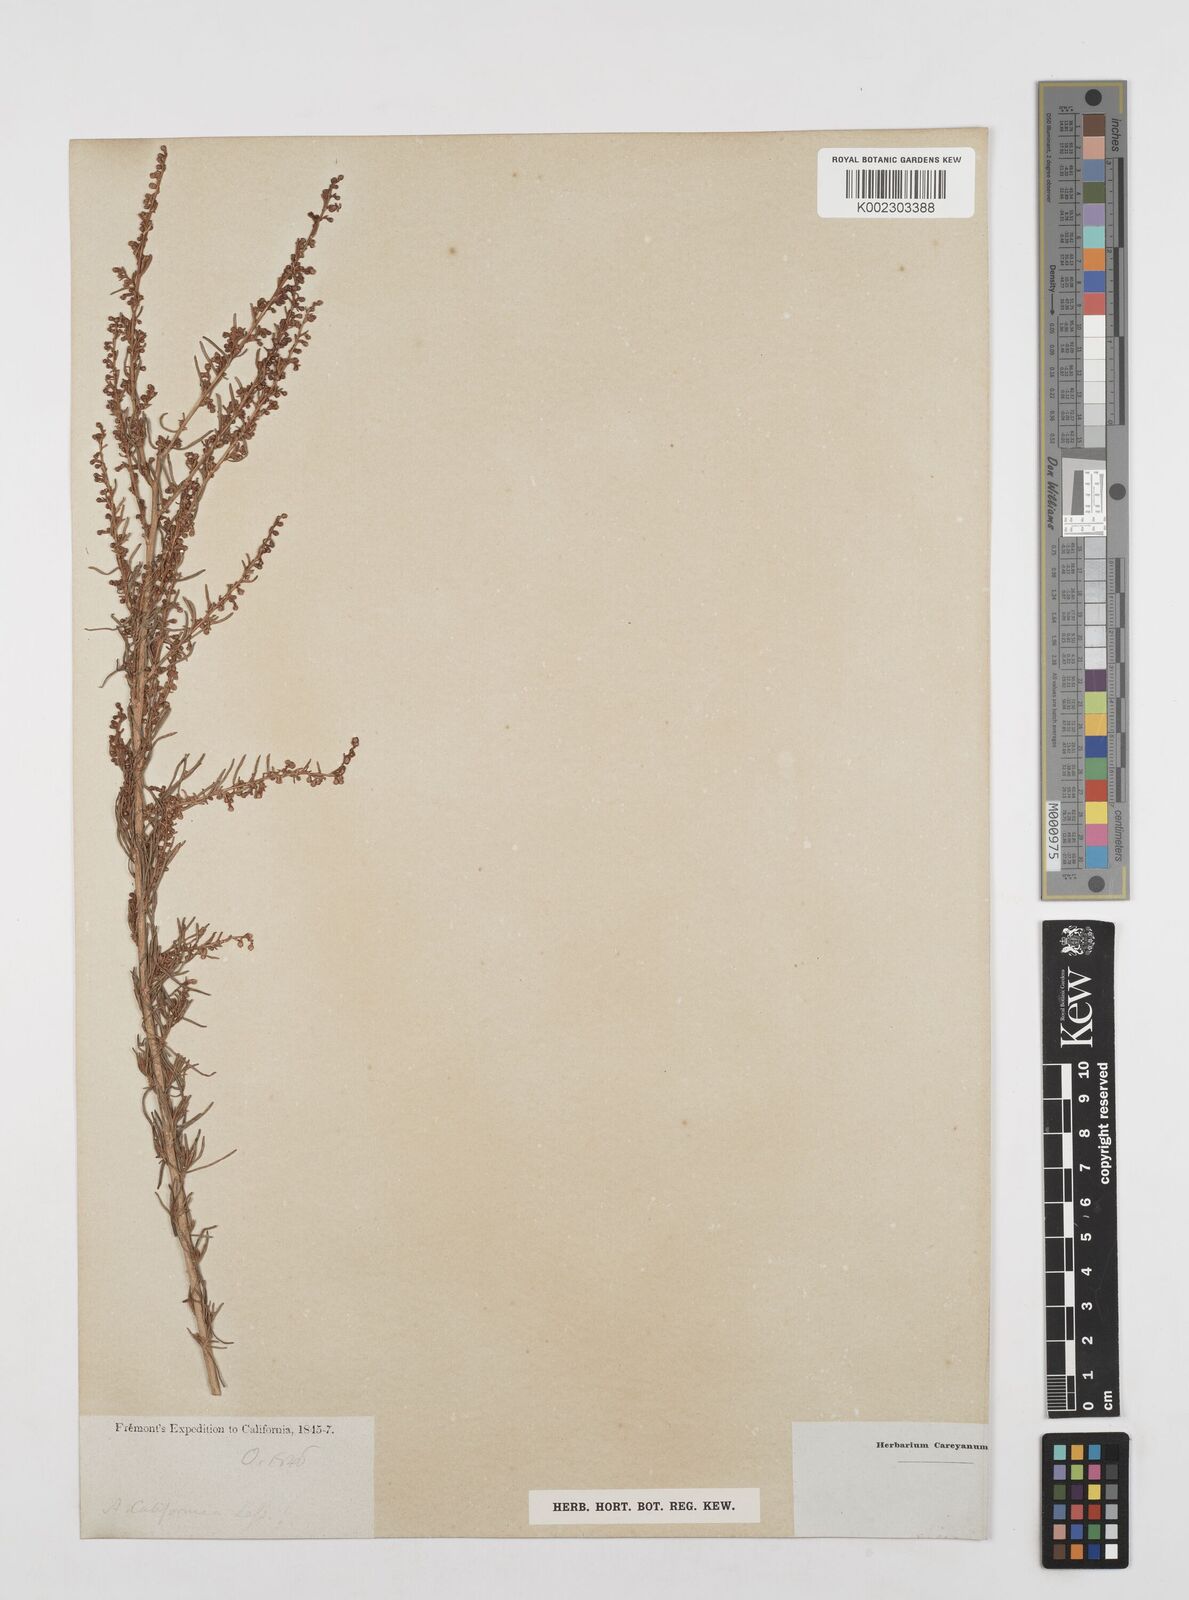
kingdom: Plantae
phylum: Tracheophyta
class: Magnoliopsida
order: Asterales
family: Asteraceae
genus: Artemisia
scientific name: Artemisia
